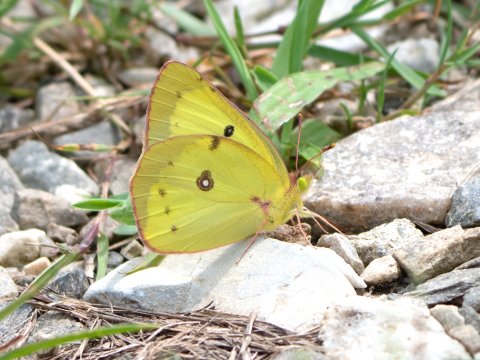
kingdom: Animalia
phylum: Arthropoda
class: Insecta
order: Lepidoptera
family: Pieridae
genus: Colias
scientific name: Colias philodice
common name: Clouded Sulphur
